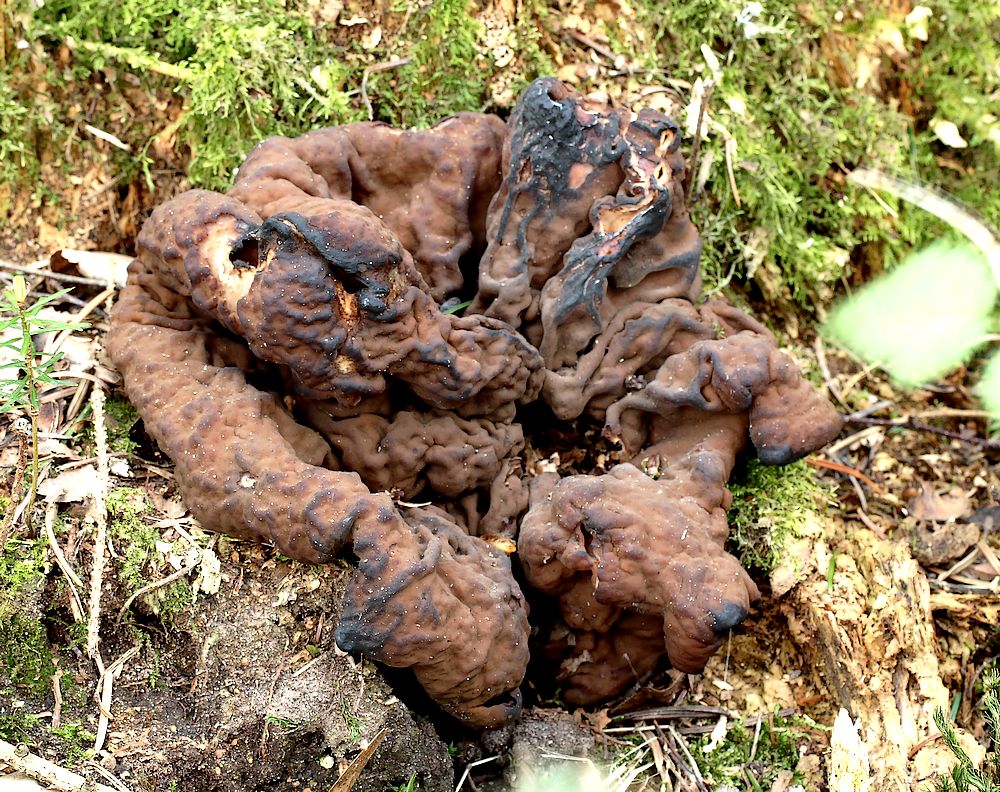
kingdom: Fungi
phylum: Ascomycota
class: Pezizomycetes
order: Pezizales
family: Discinaceae
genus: Discina
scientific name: Discina ancilis
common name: udbredt stenmorkel
